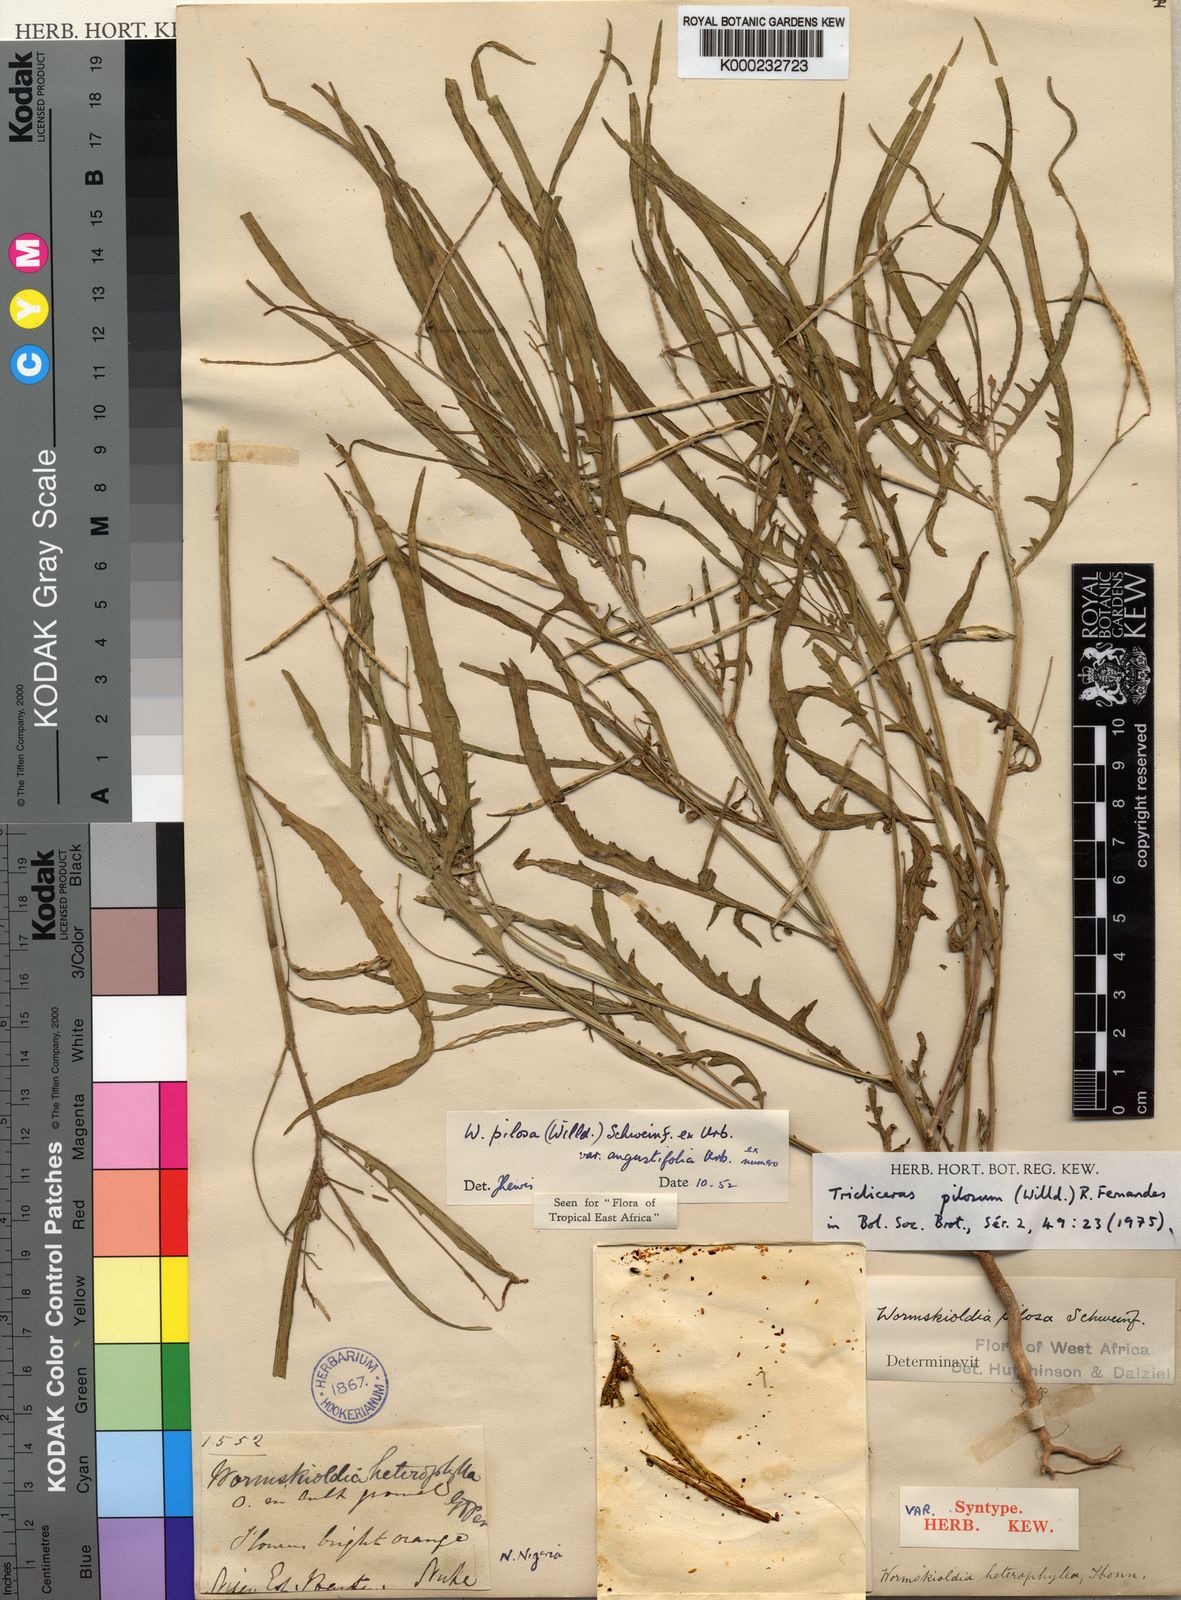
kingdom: Plantae
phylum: Tracheophyta
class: Magnoliopsida
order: Malpighiales
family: Turneraceae
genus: Tricliceras
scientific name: Tricliceras pilosum
